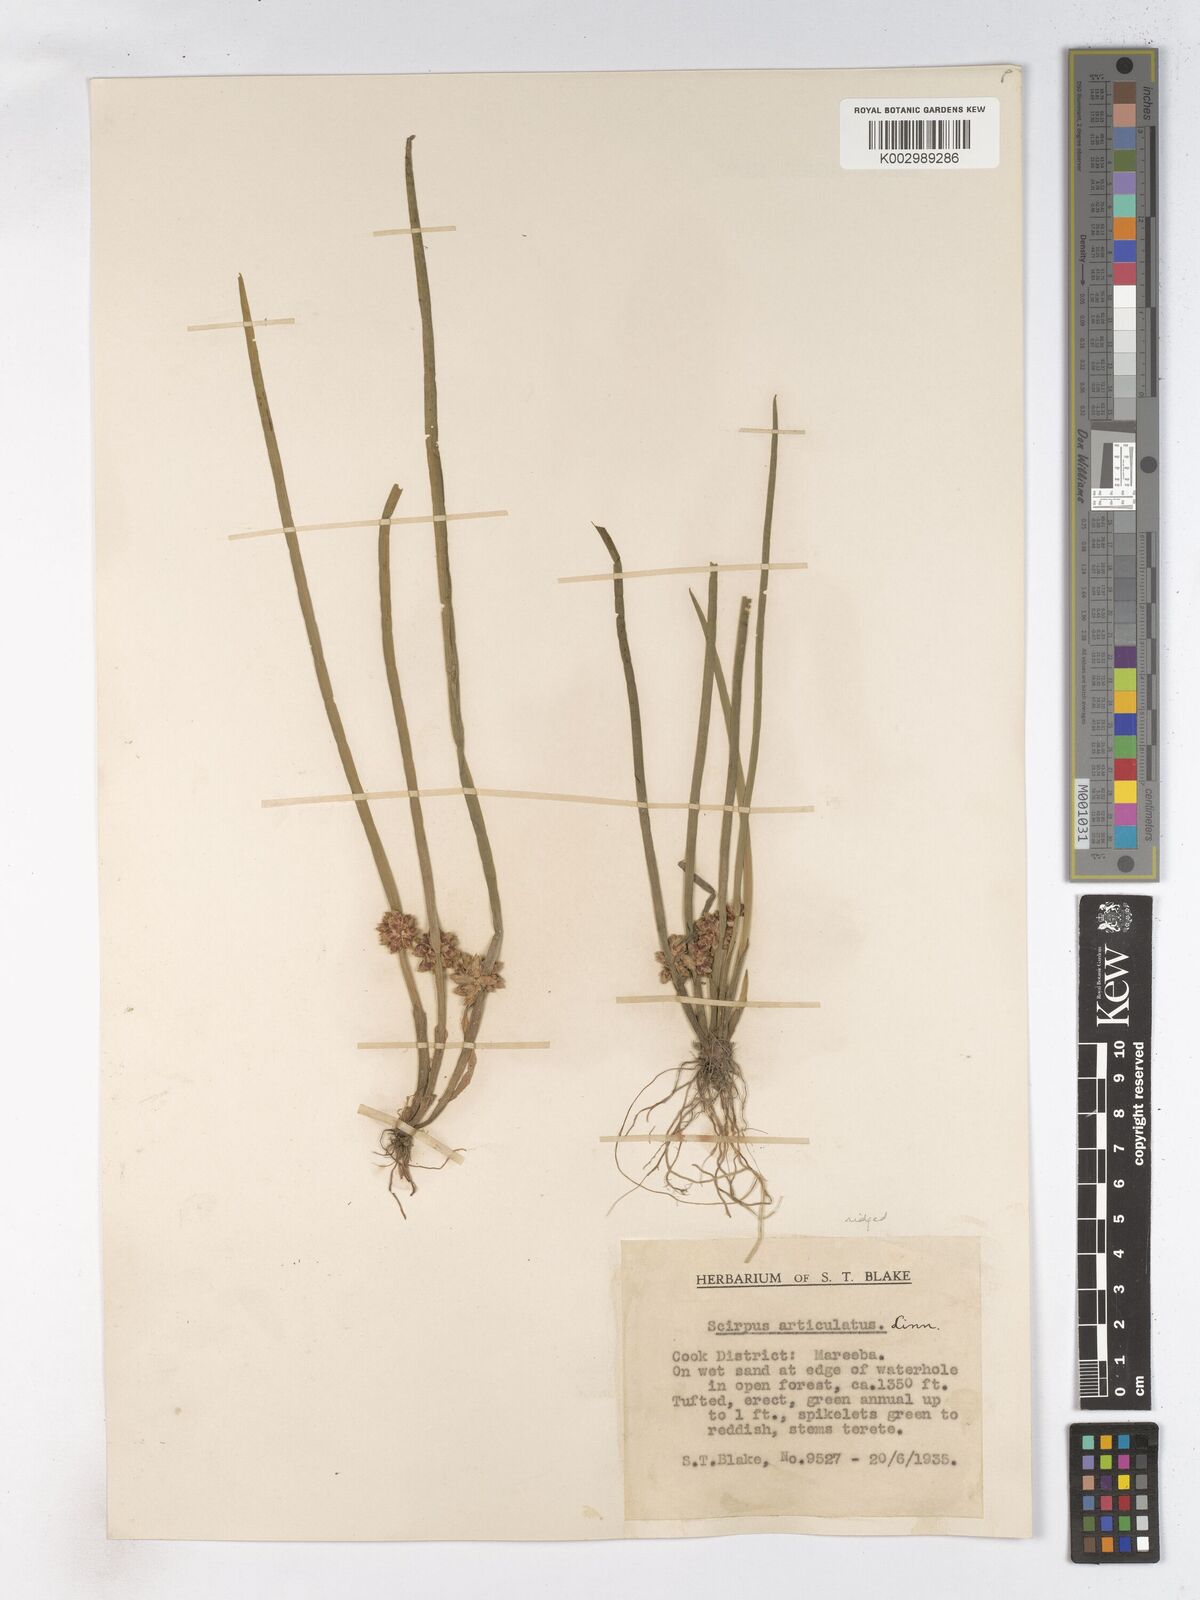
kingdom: Plantae
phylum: Tracheophyta
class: Liliopsida
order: Poales
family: Cyperaceae
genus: Schoenoplectiella
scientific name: Schoenoplectiella articulata
